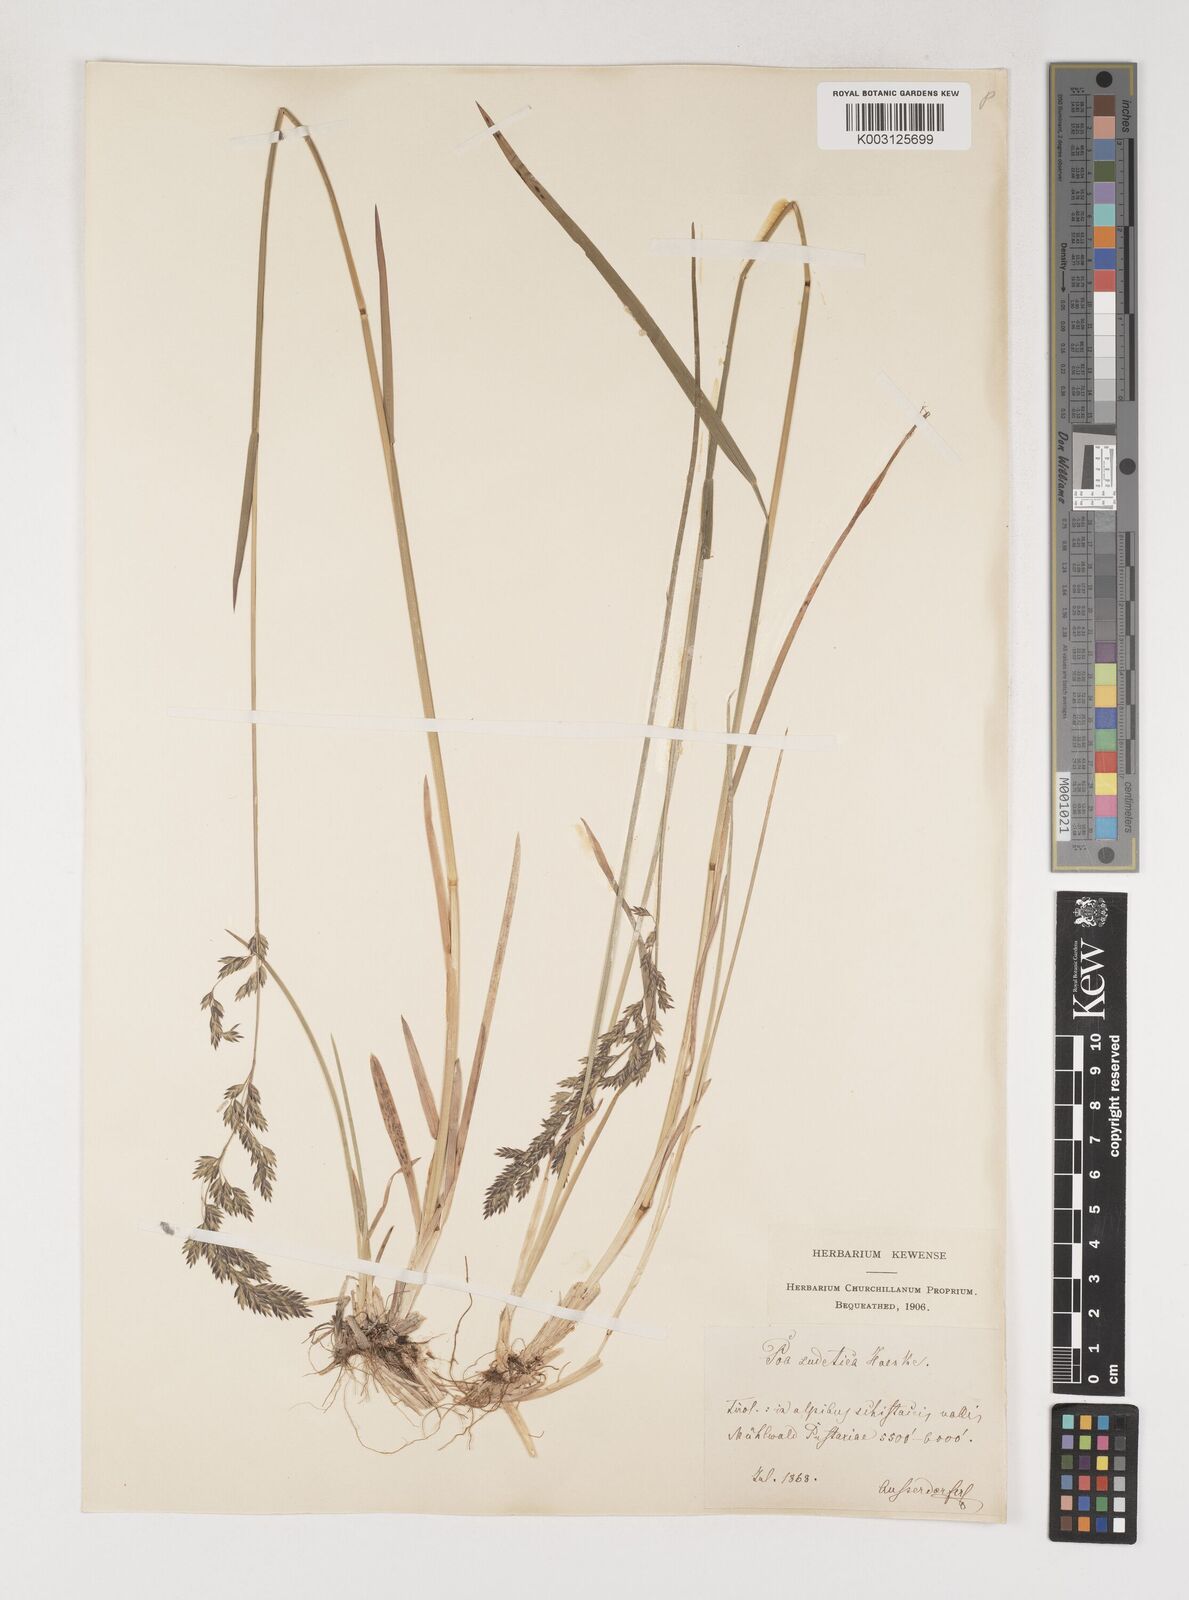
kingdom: Plantae
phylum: Tracheophyta
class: Liliopsida
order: Poales
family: Poaceae
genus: Poa
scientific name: Poa chaixii
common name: Broad-leaved meadow-grass
